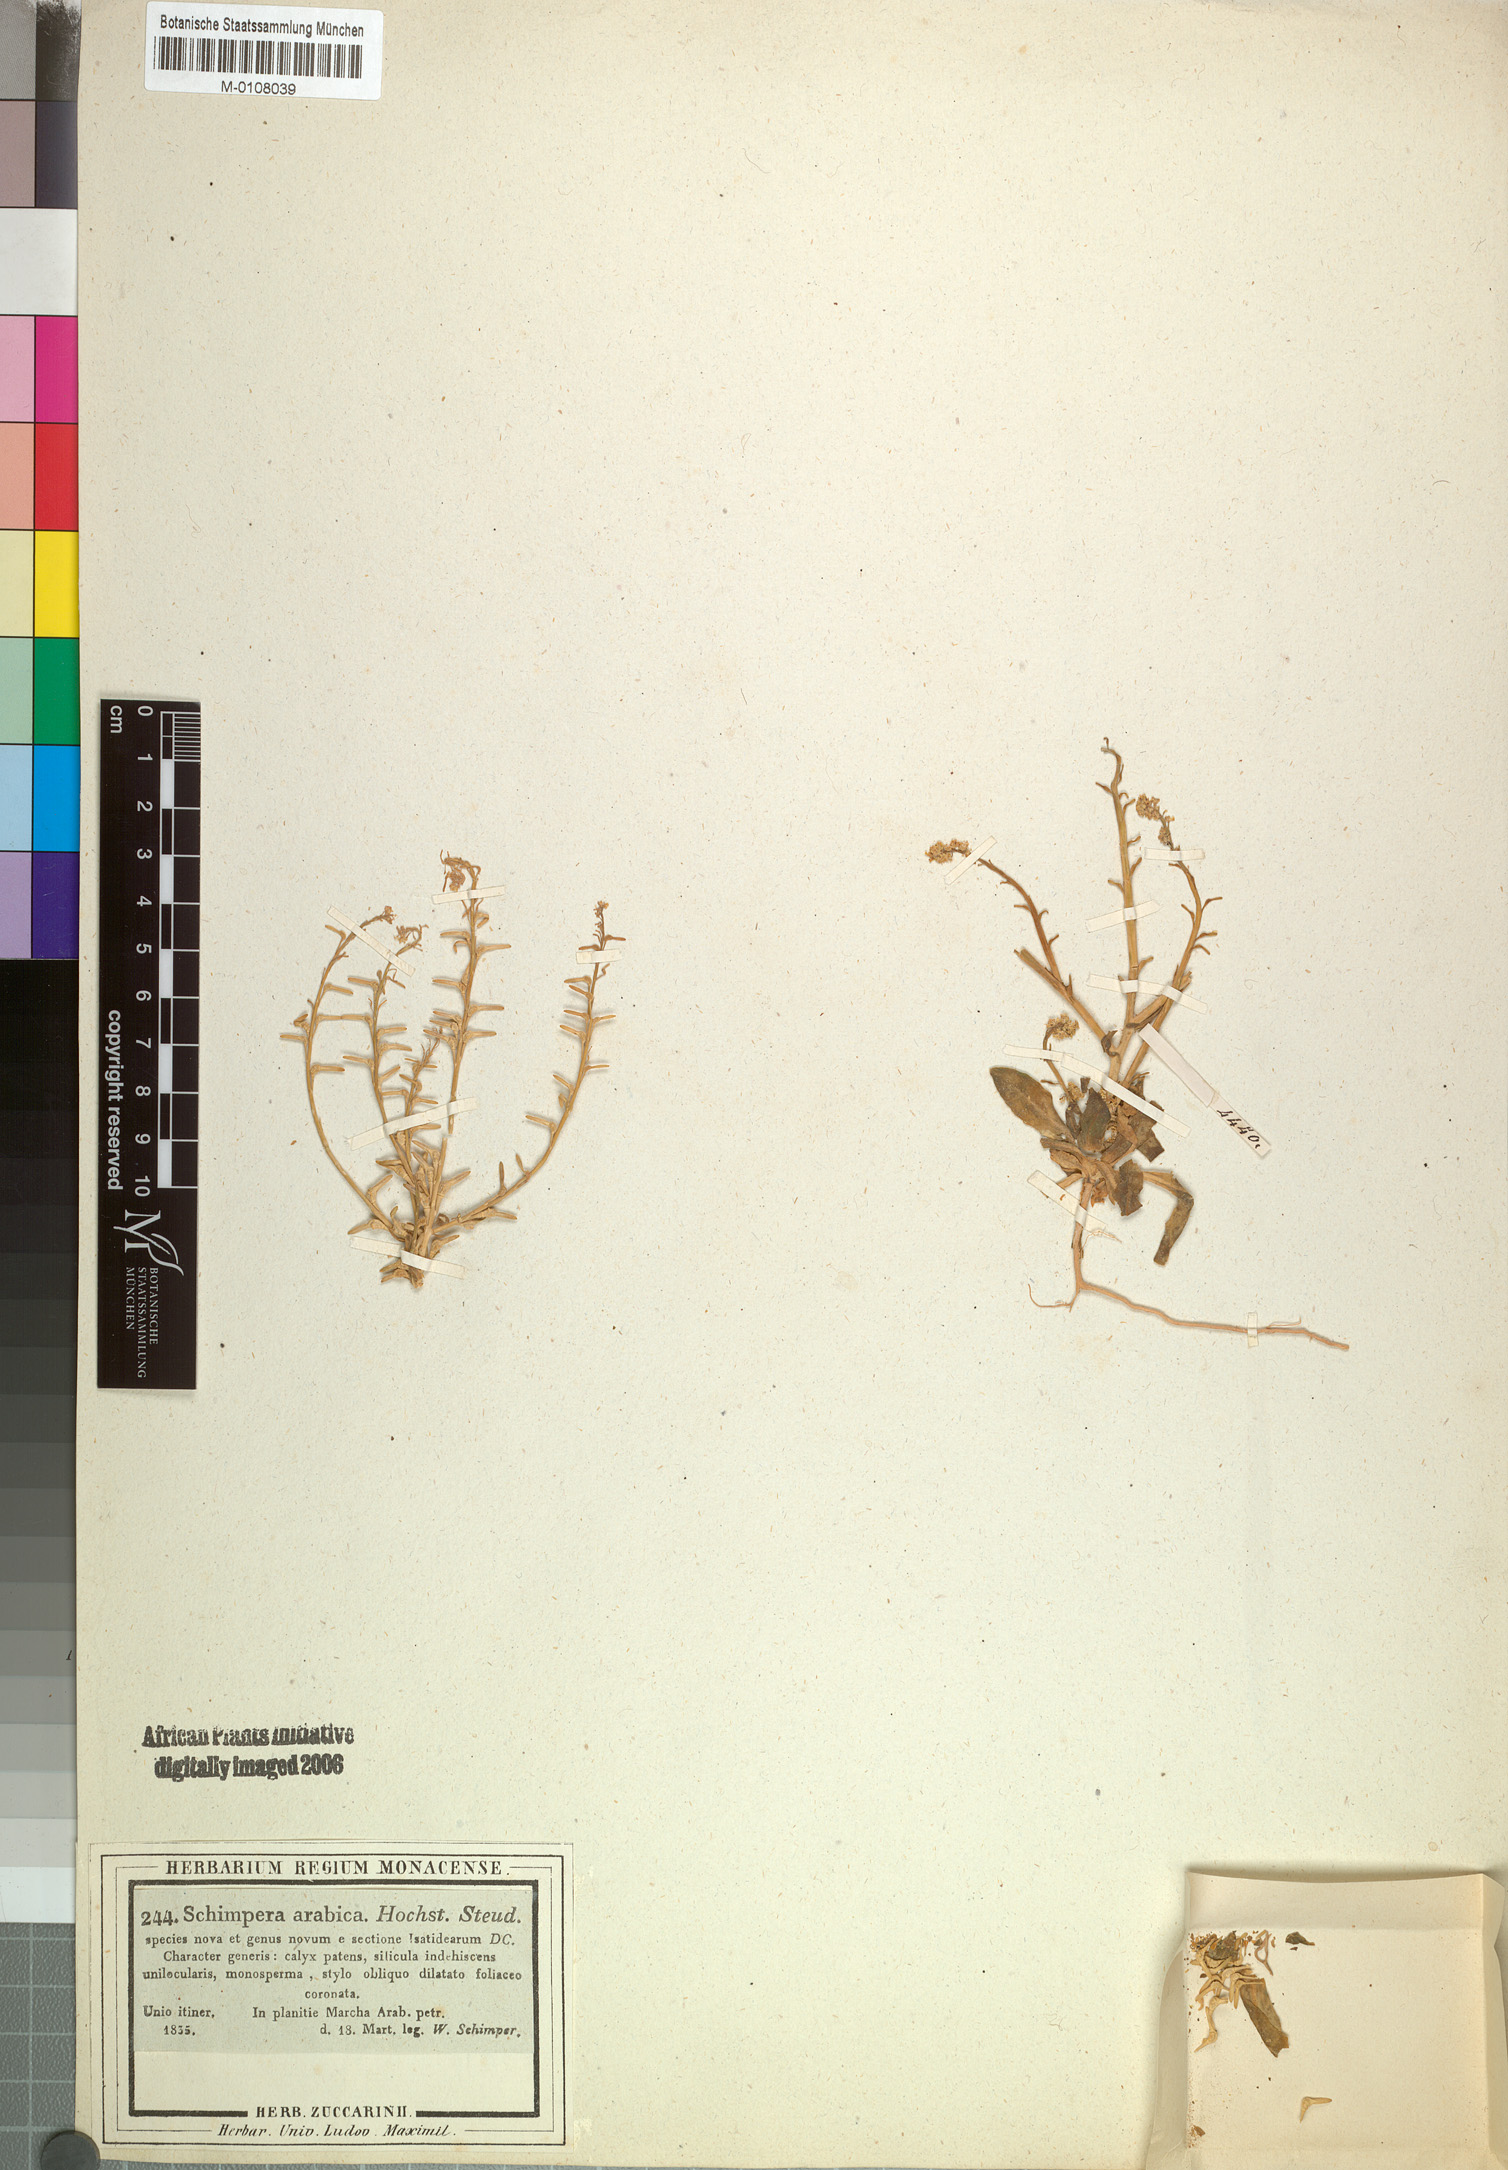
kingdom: Plantae
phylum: Tracheophyta
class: Magnoliopsida
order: Brassicales
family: Brassicaceae
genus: Schimpera
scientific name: Schimpera arabica
